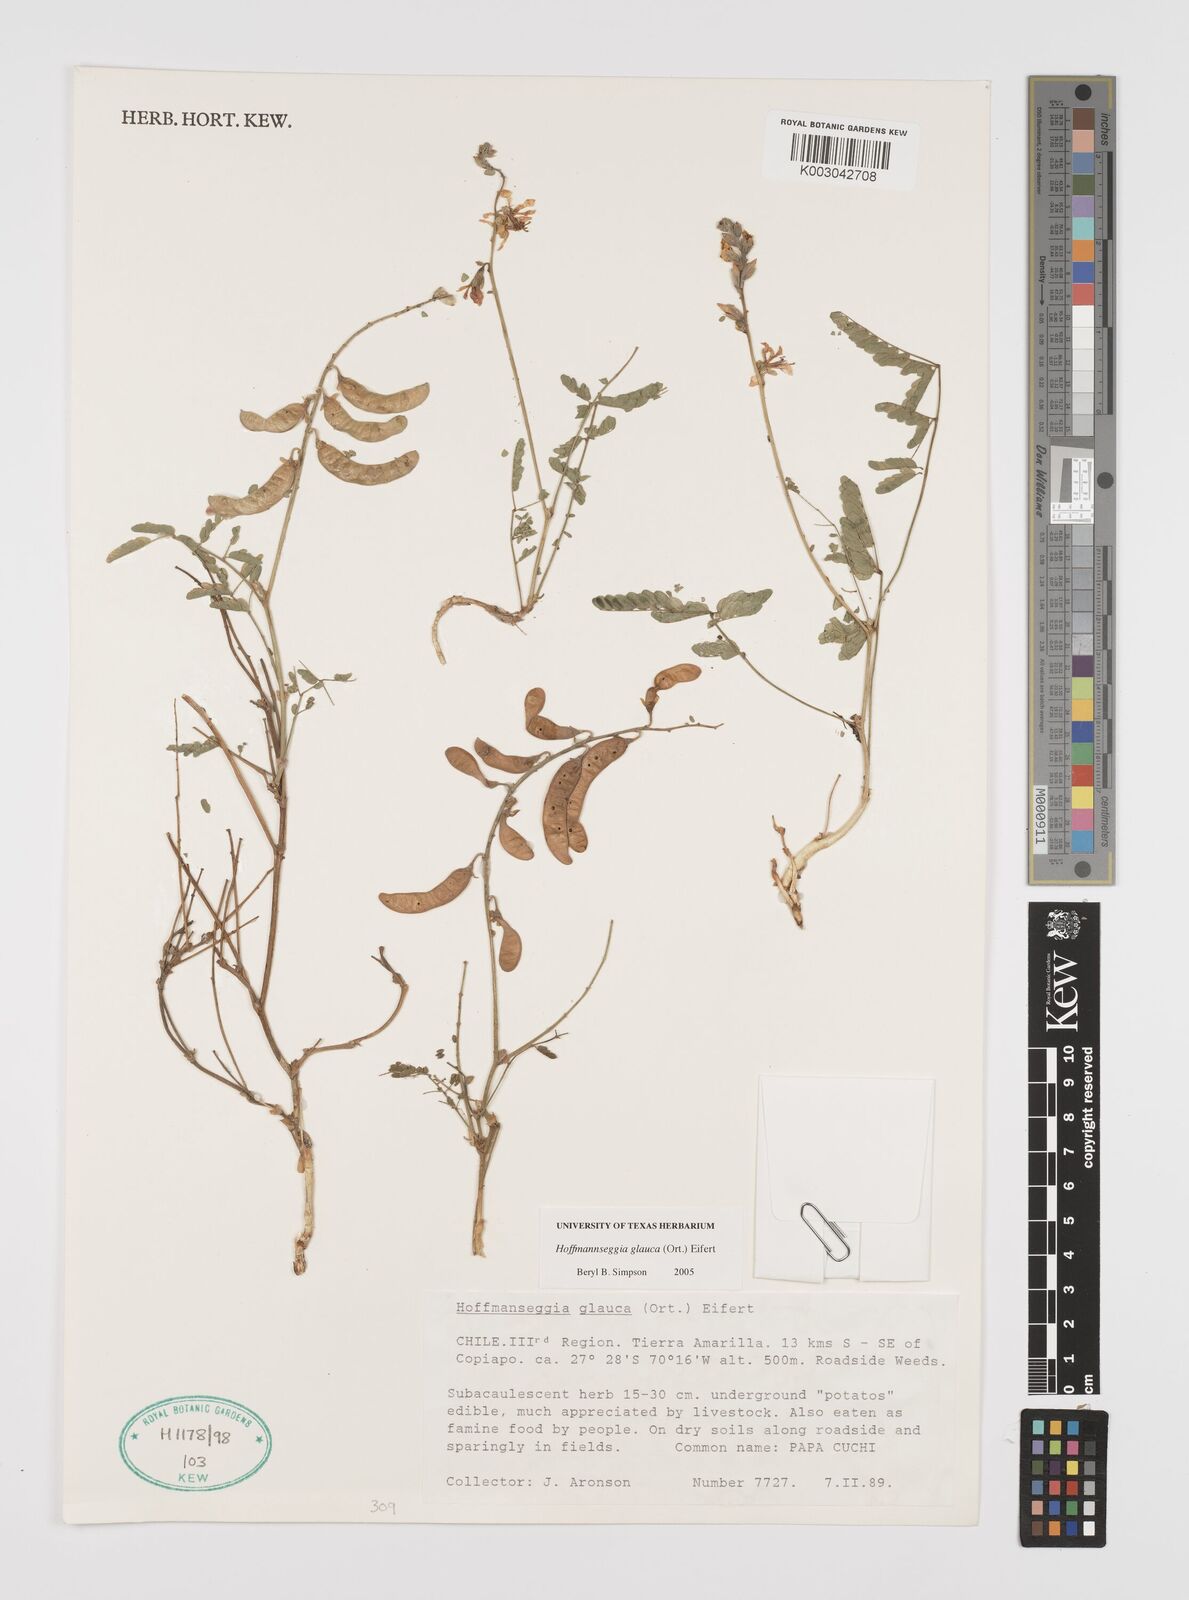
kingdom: Plantae
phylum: Tracheophyta
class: Magnoliopsida
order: Fabales
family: Fabaceae
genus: Hoffmannseggia
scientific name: Hoffmannseggia glauca
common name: Pignut
